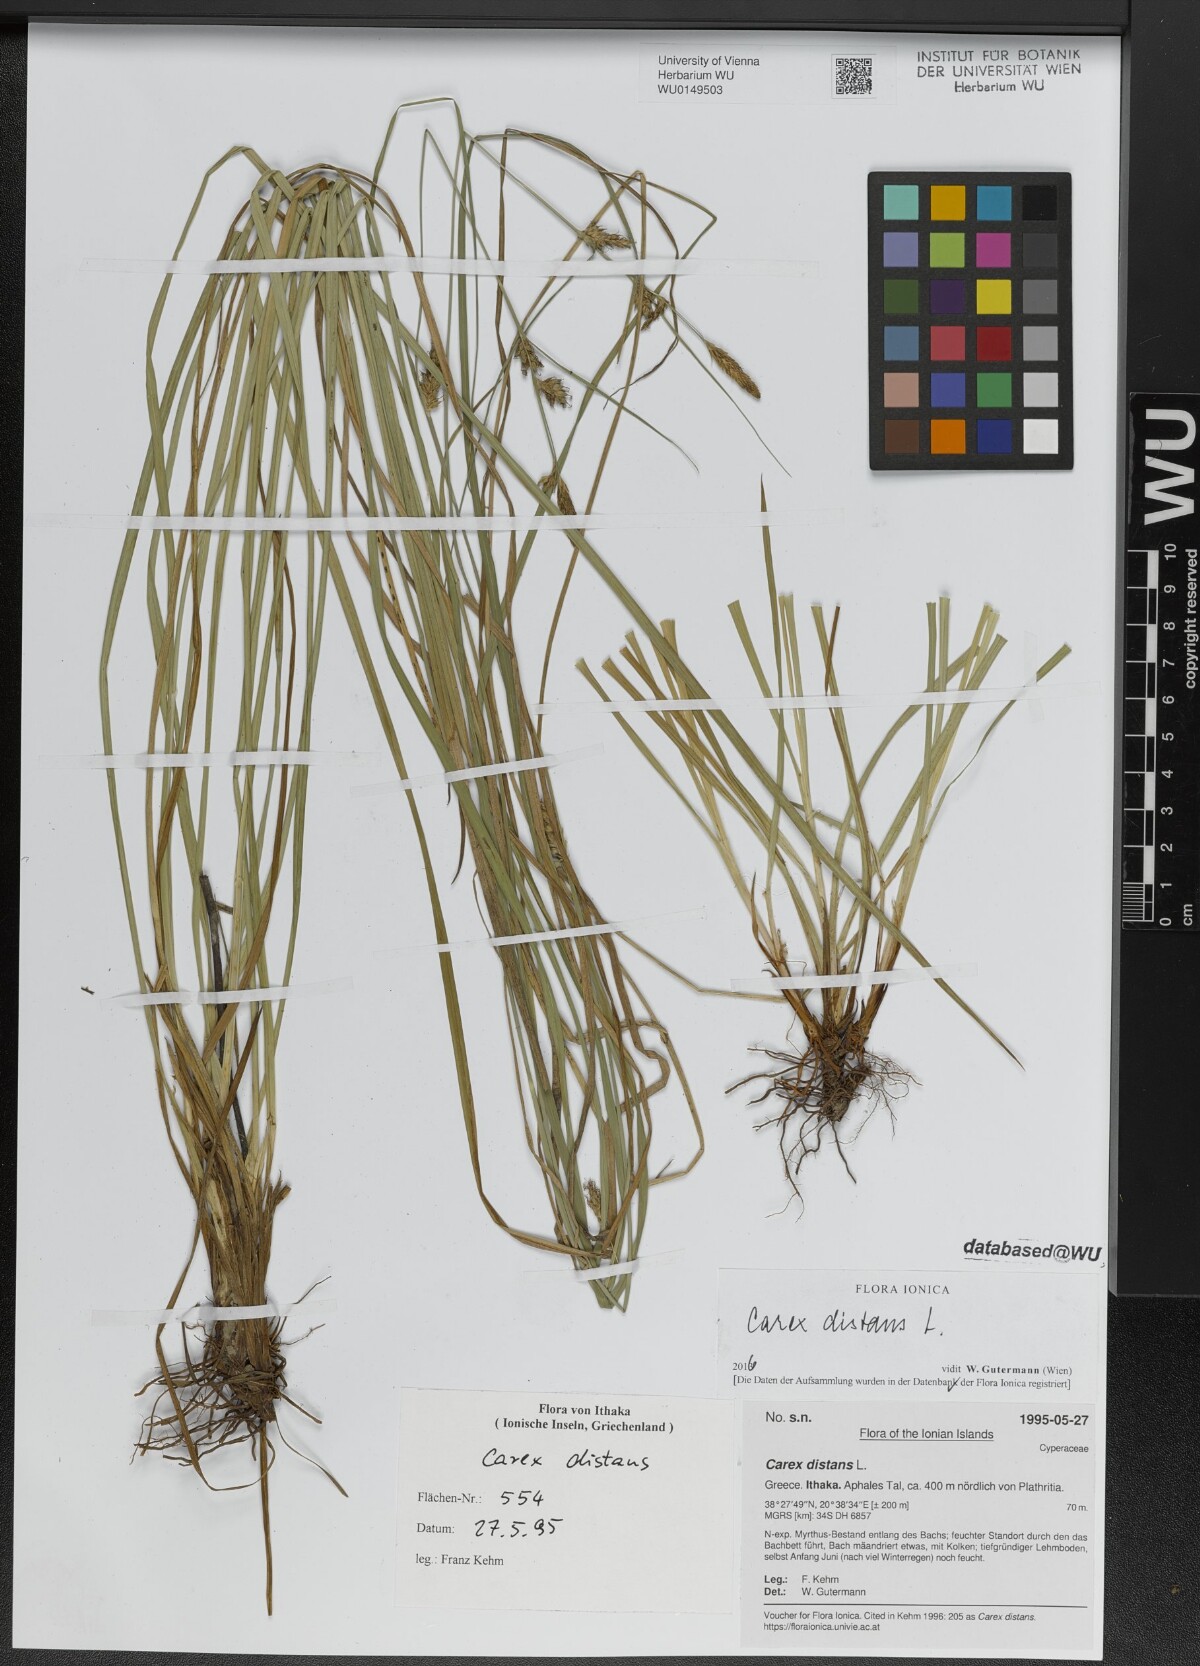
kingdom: Plantae
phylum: Tracheophyta
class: Liliopsida
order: Poales
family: Cyperaceae
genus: Carex
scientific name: Carex distans
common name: Distant sedge
